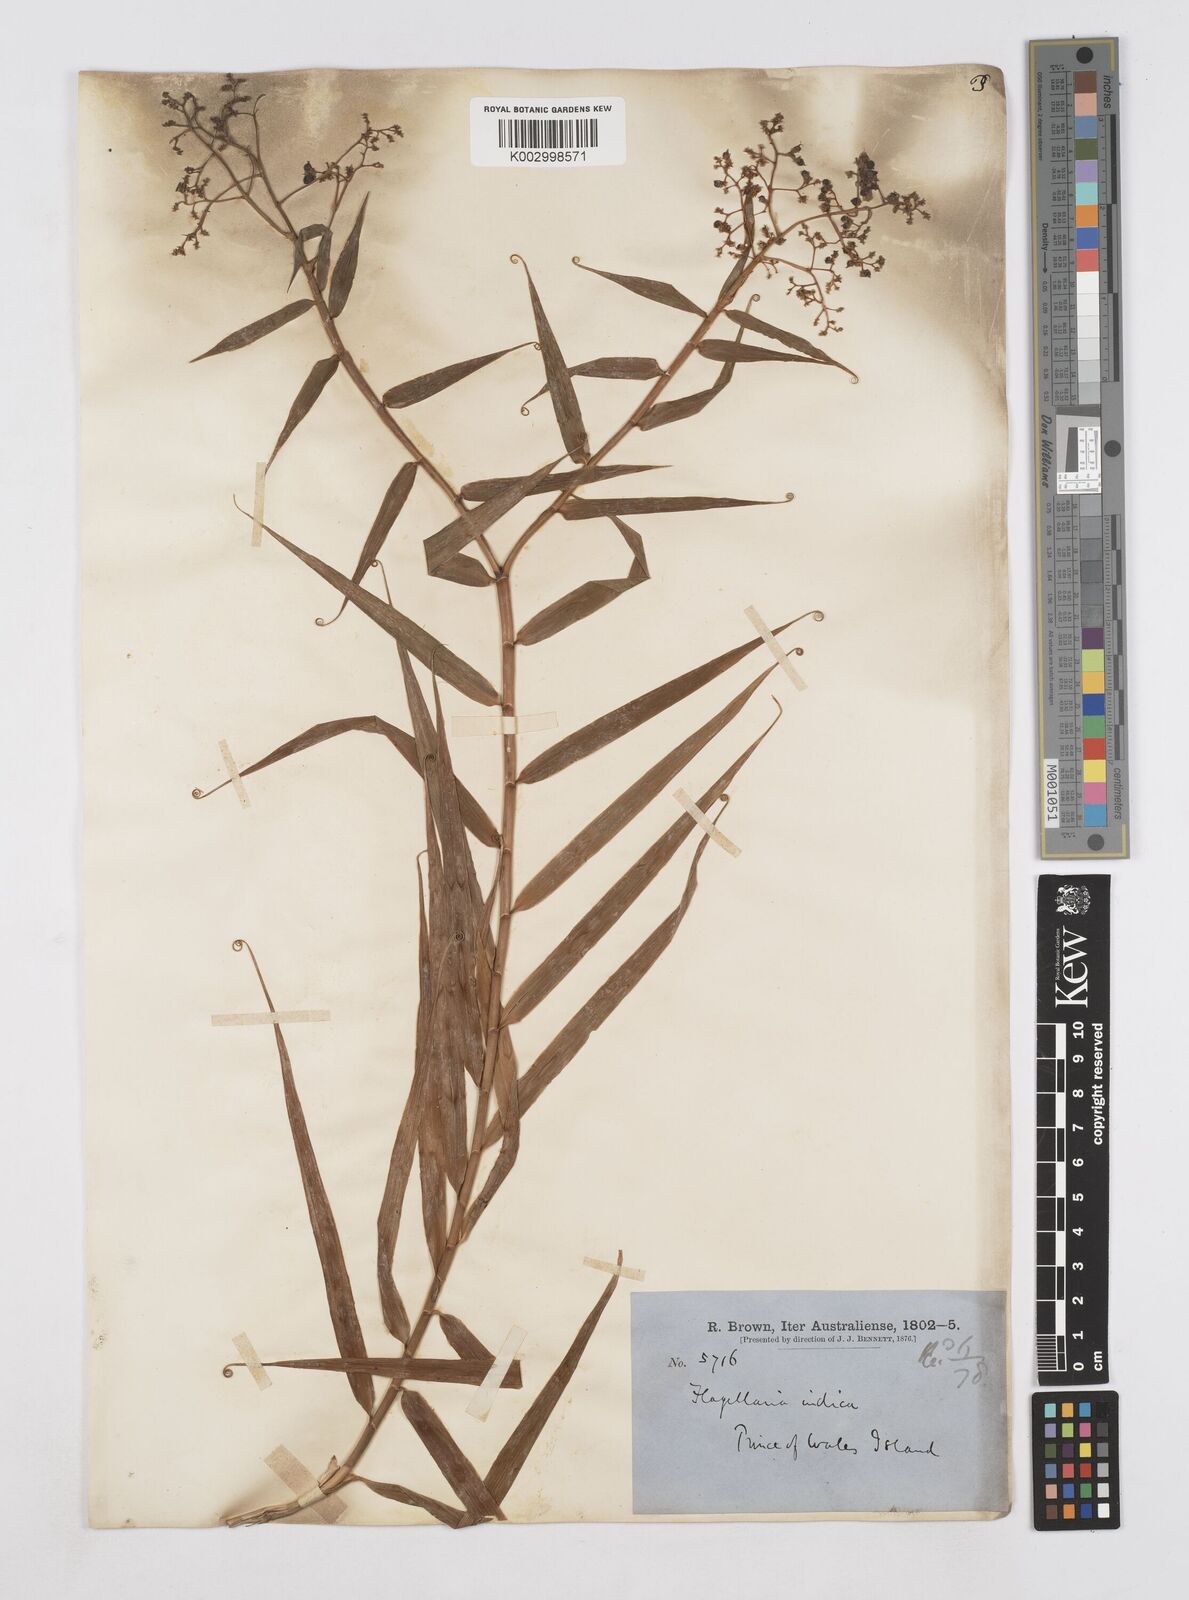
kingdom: Plantae
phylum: Tracheophyta
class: Liliopsida
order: Poales
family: Flagellariaceae
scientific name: Flagellariaceae
